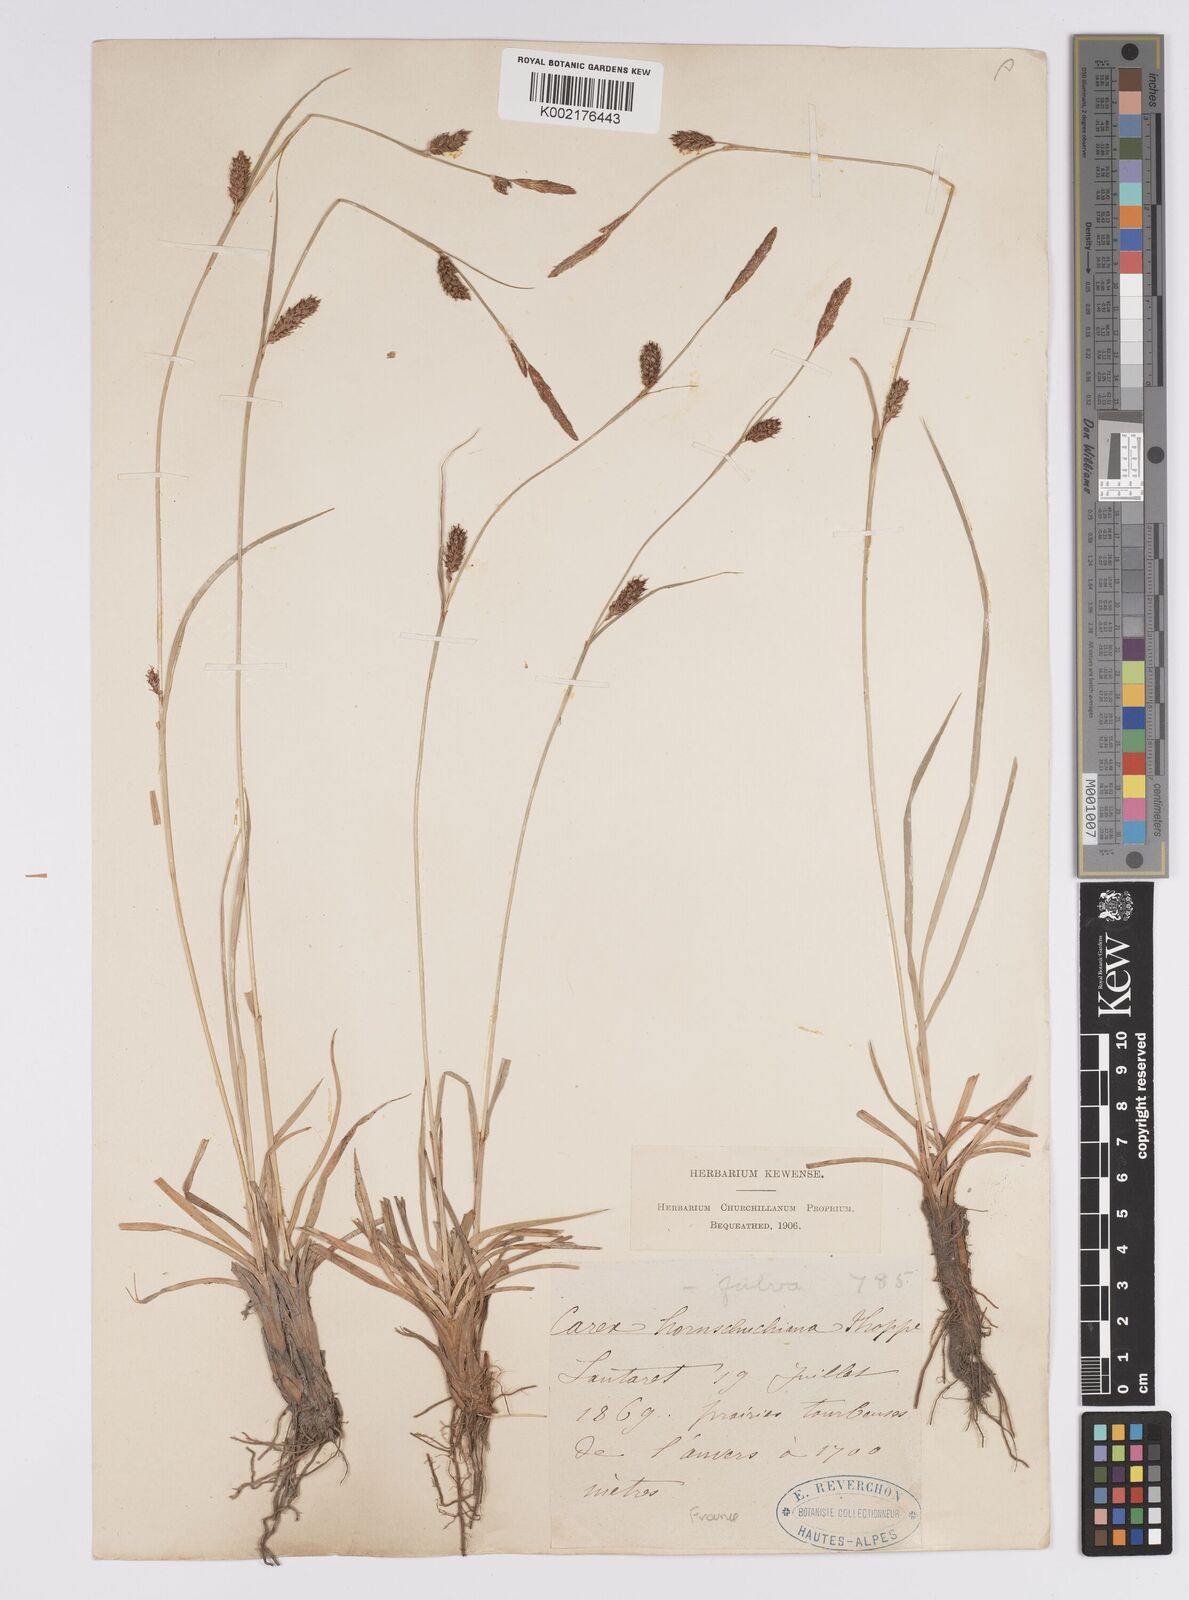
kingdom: Plantae
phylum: Tracheophyta
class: Liliopsida
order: Poales
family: Cyperaceae
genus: Carex
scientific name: Carex distans
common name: Distant sedge
